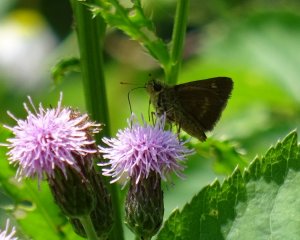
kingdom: Animalia
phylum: Arthropoda
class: Insecta
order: Lepidoptera
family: Hesperiidae
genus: Polites
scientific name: Polites egeremet
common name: Northern Broken-Dash
